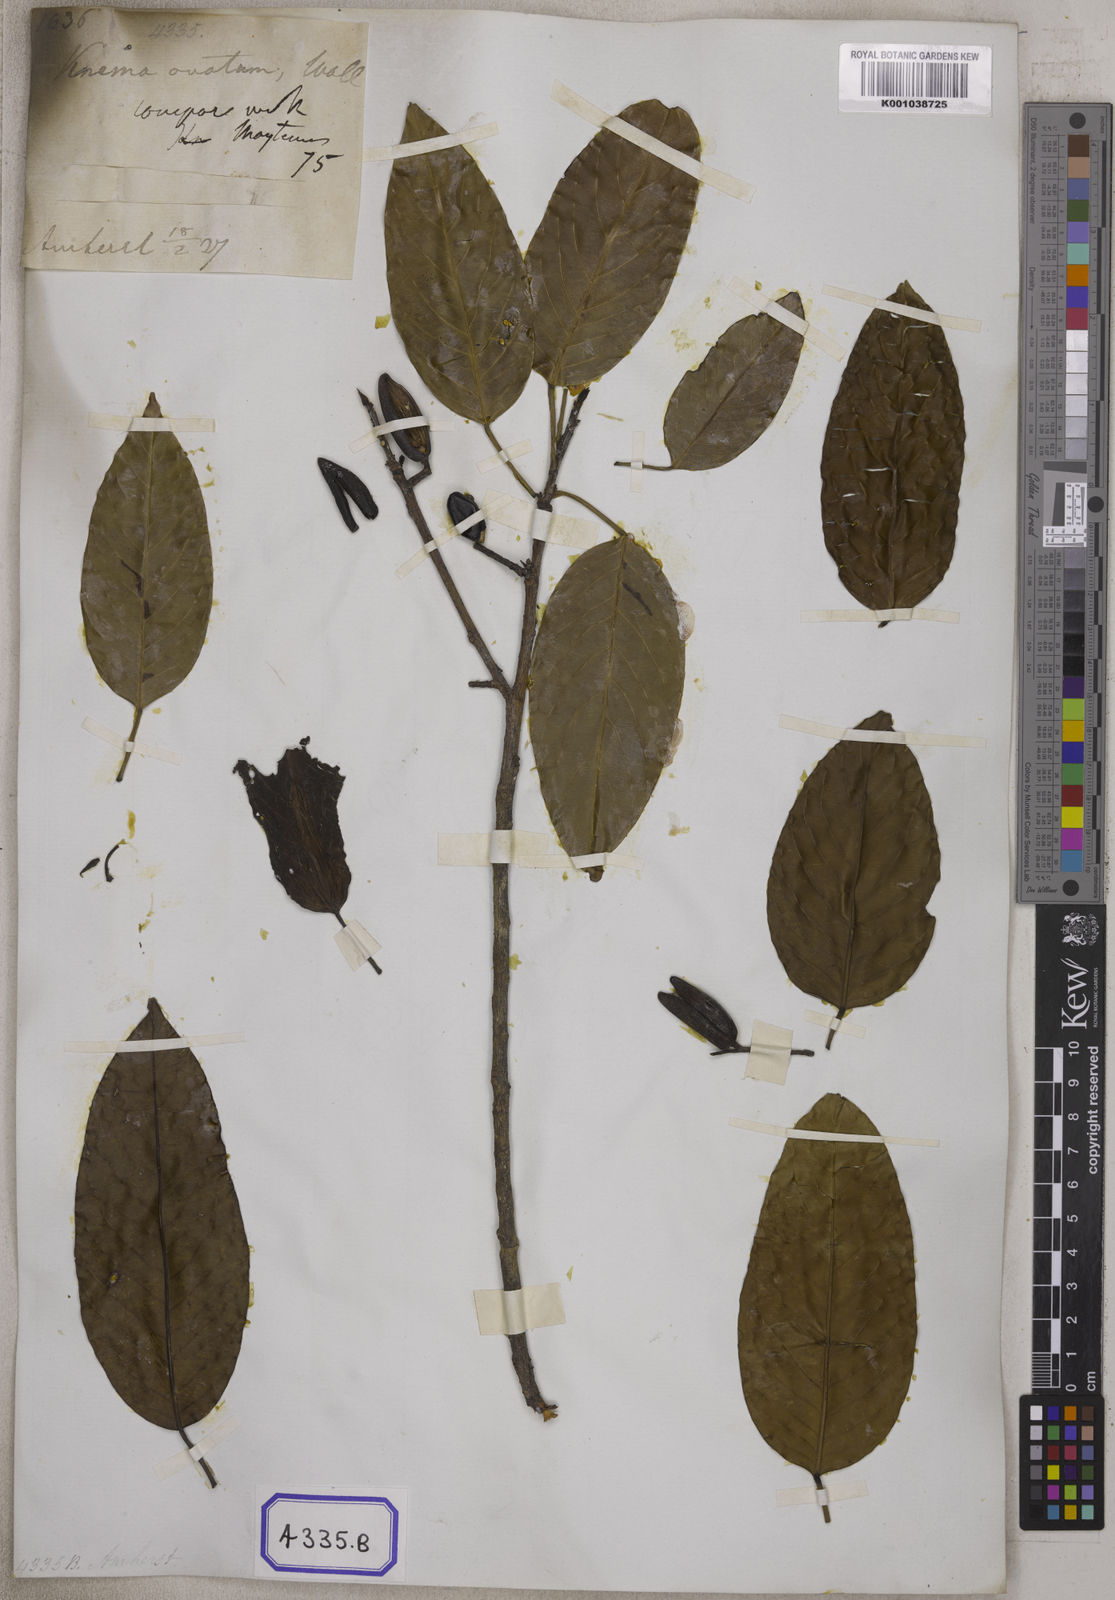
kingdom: Plantae
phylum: Tracheophyta
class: Magnoliopsida
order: Malpighiales
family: Centroplacaceae
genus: Bhesa
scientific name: Bhesa robusta
